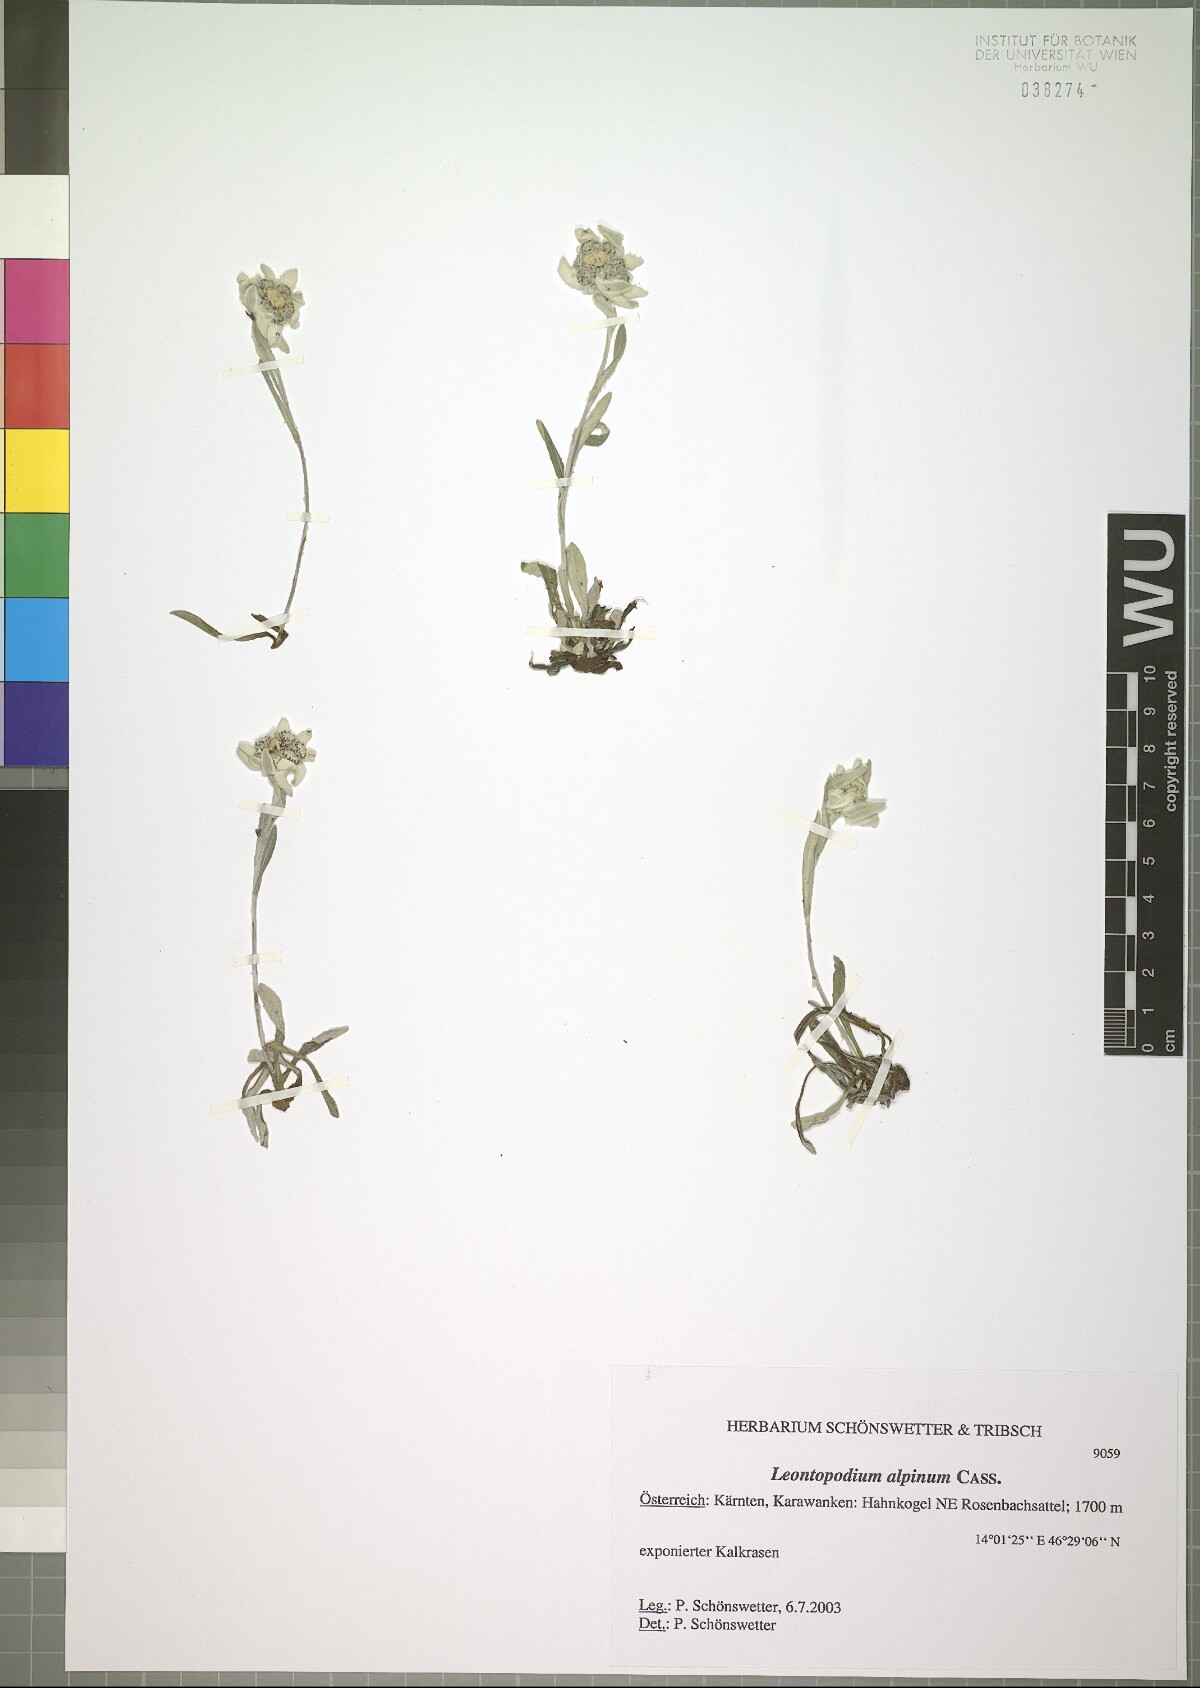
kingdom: Plantae
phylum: Tracheophyta
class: Magnoliopsida
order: Asterales
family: Asteraceae
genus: Leontopodium
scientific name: Leontopodium nivale
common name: Edelweiss
